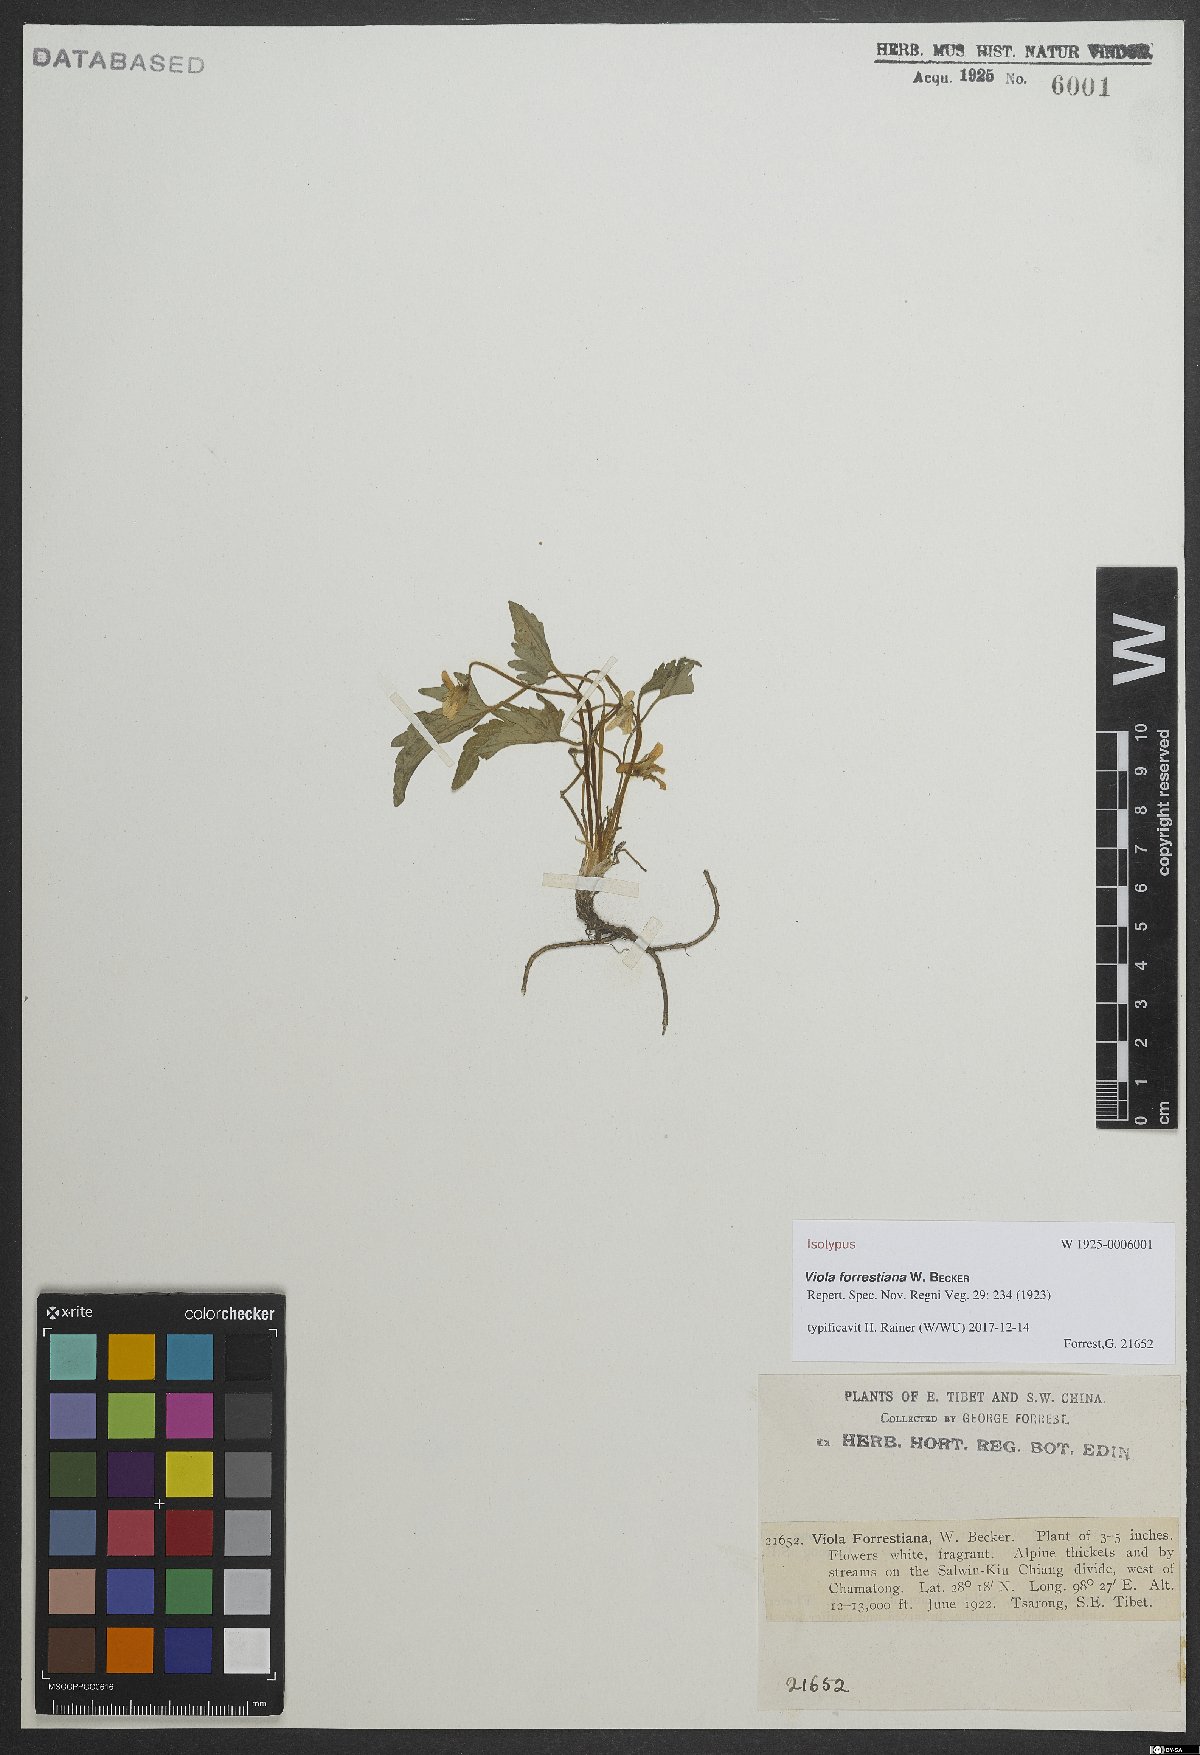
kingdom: Plantae
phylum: Tracheophyta
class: Magnoliopsida
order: Malpighiales
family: Violaceae
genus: Viola
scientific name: Viola forrestiana
